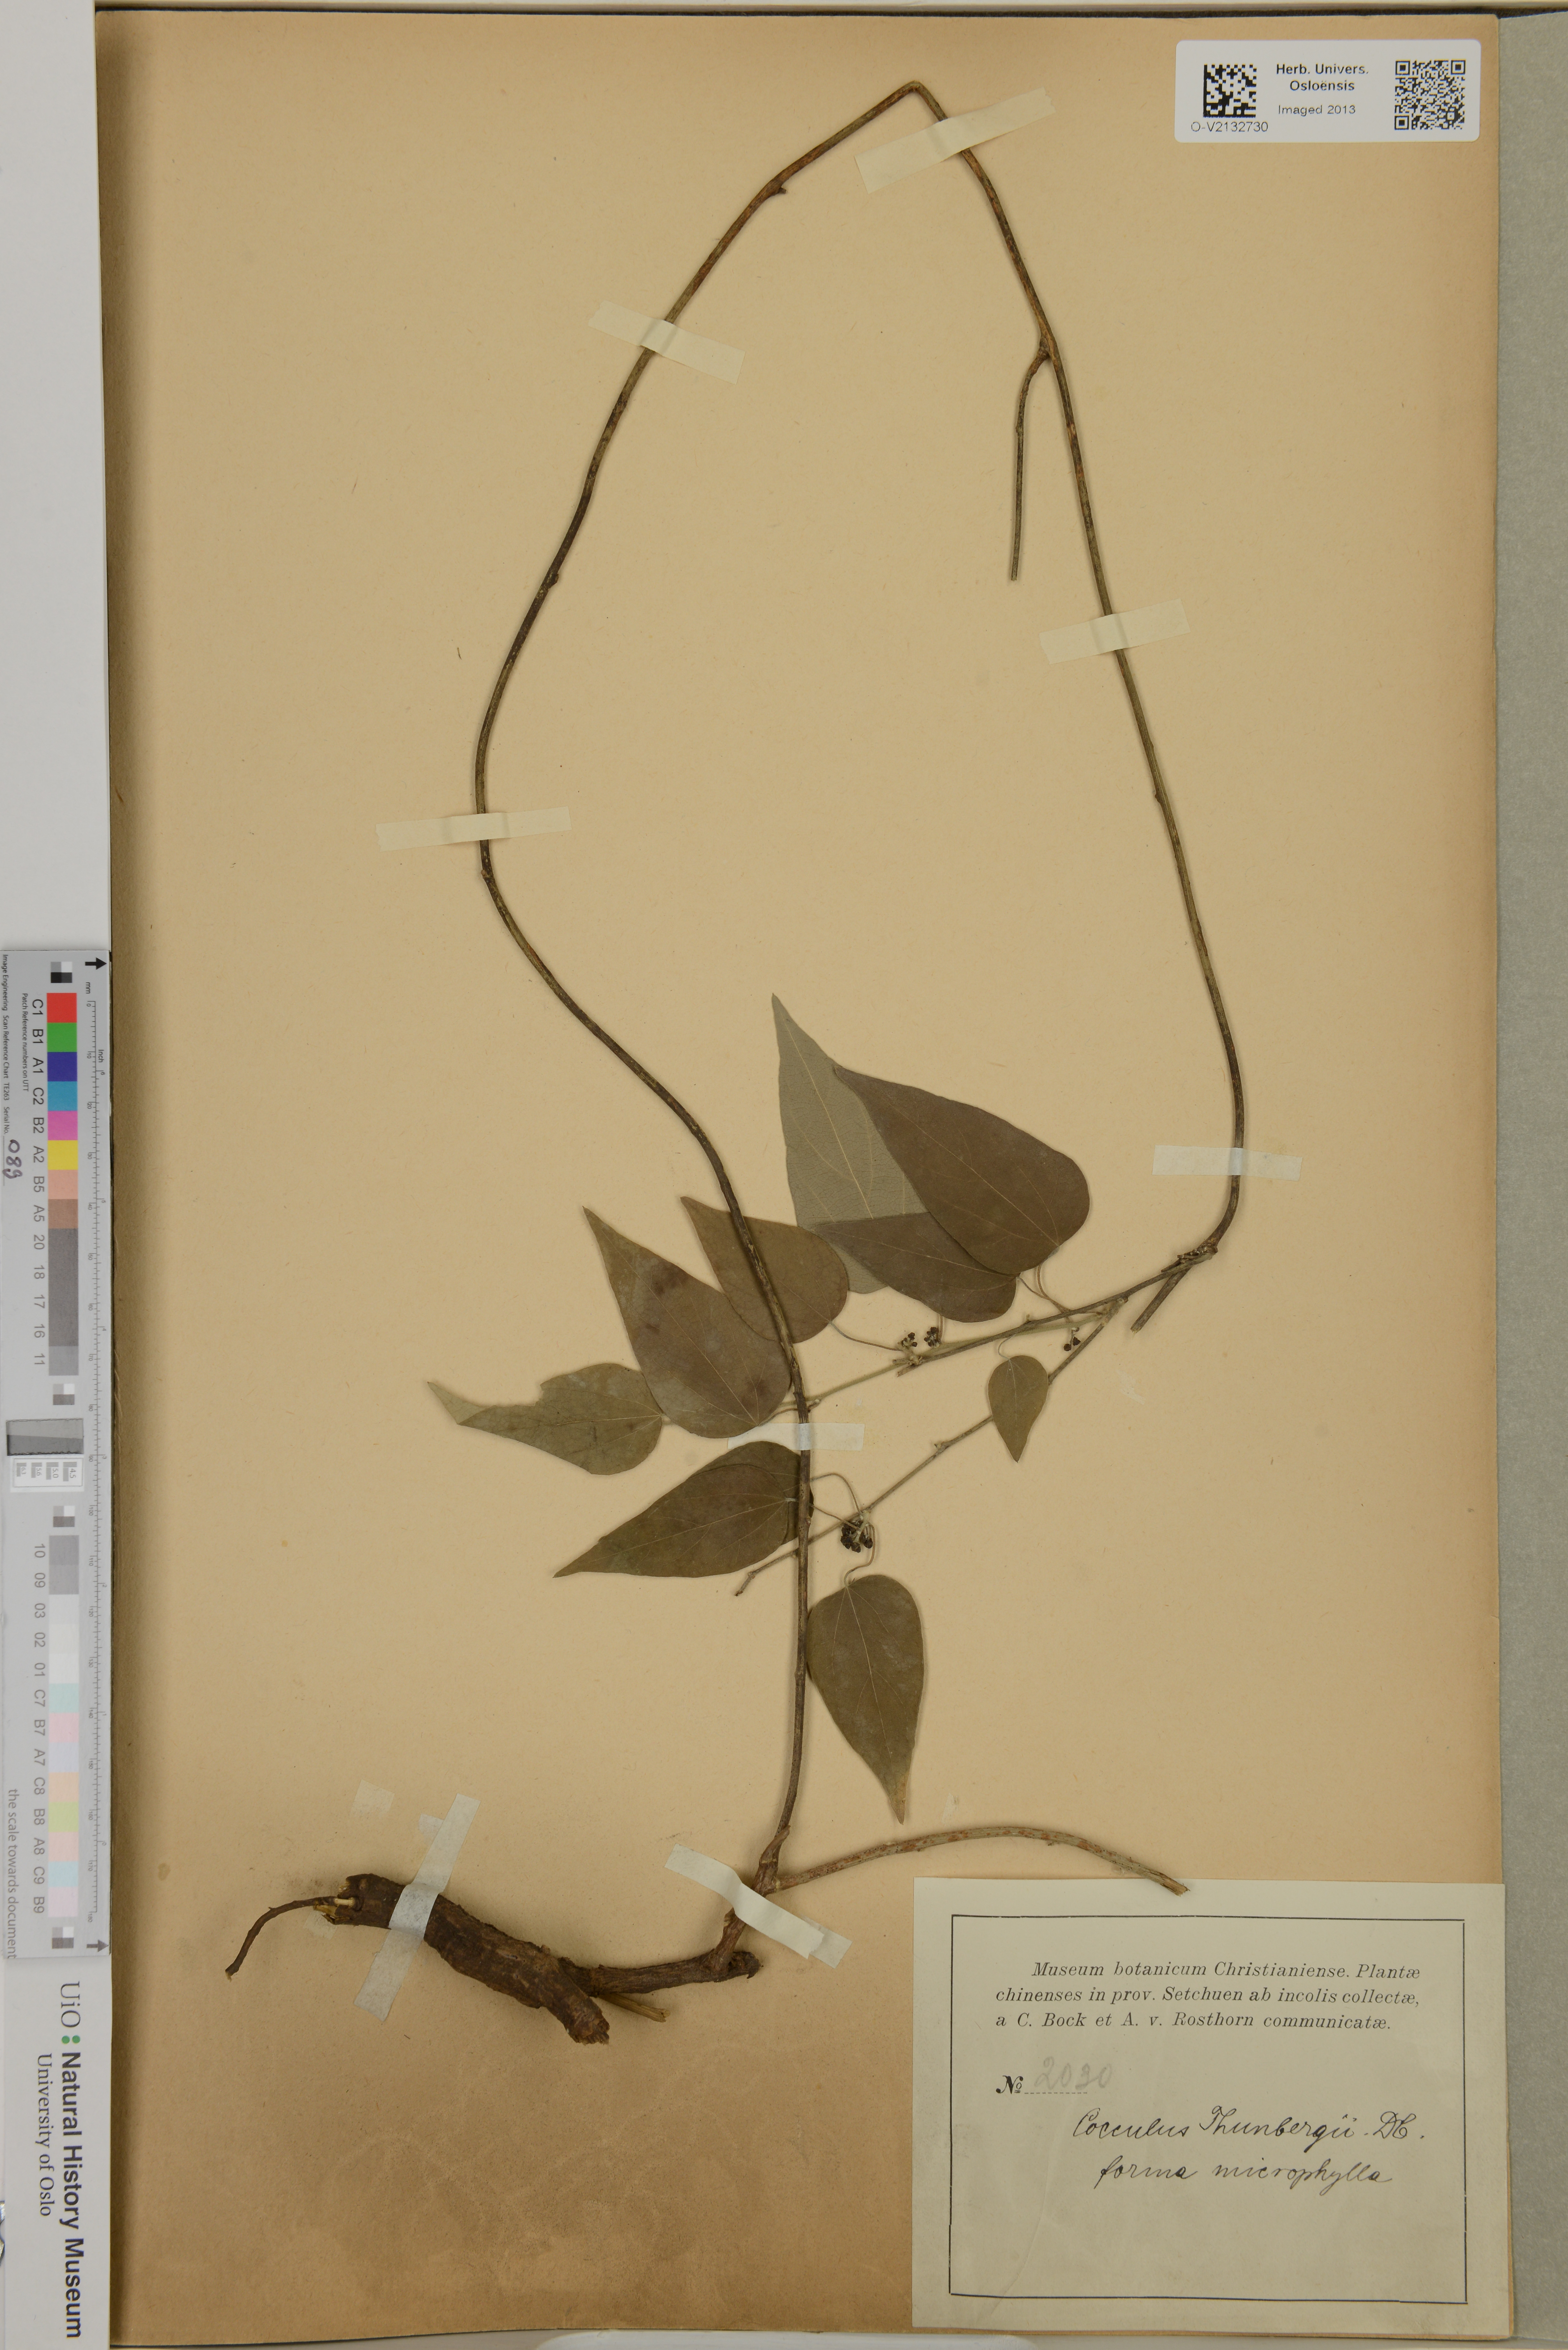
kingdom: Plantae
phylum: Tracheophyta
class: Magnoliopsida
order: Ranunculales
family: Menispermaceae
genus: Cocculus
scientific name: Cocculus orbiculatus
